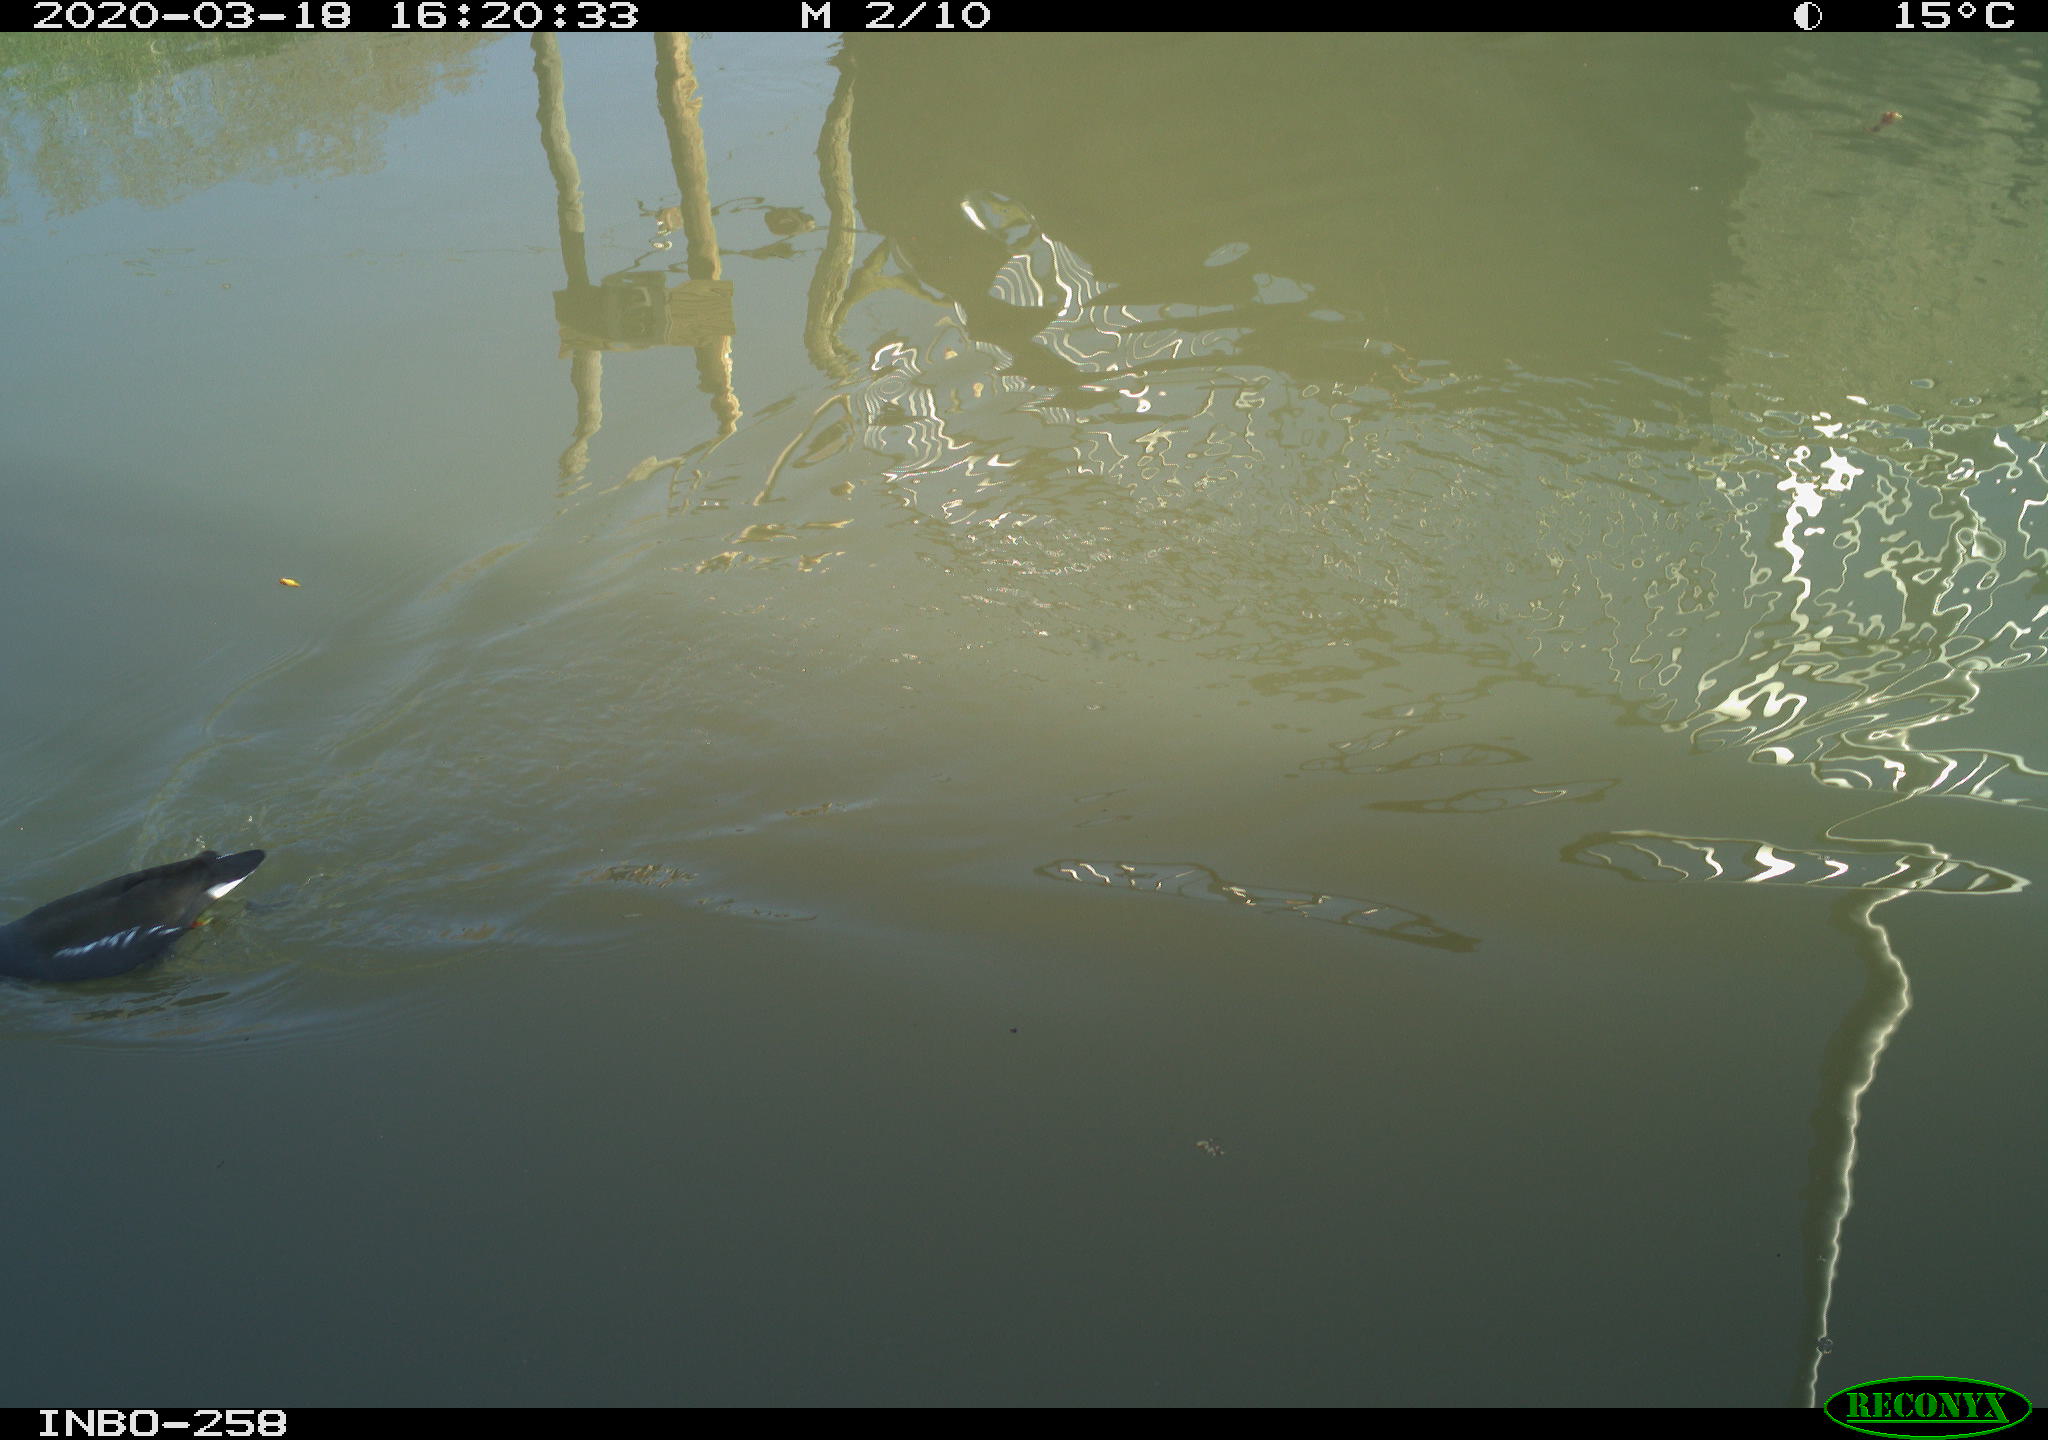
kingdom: Animalia
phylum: Chordata
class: Aves
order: Gruiformes
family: Rallidae
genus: Gallinula
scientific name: Gallinula chloropus
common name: Common moorhen
